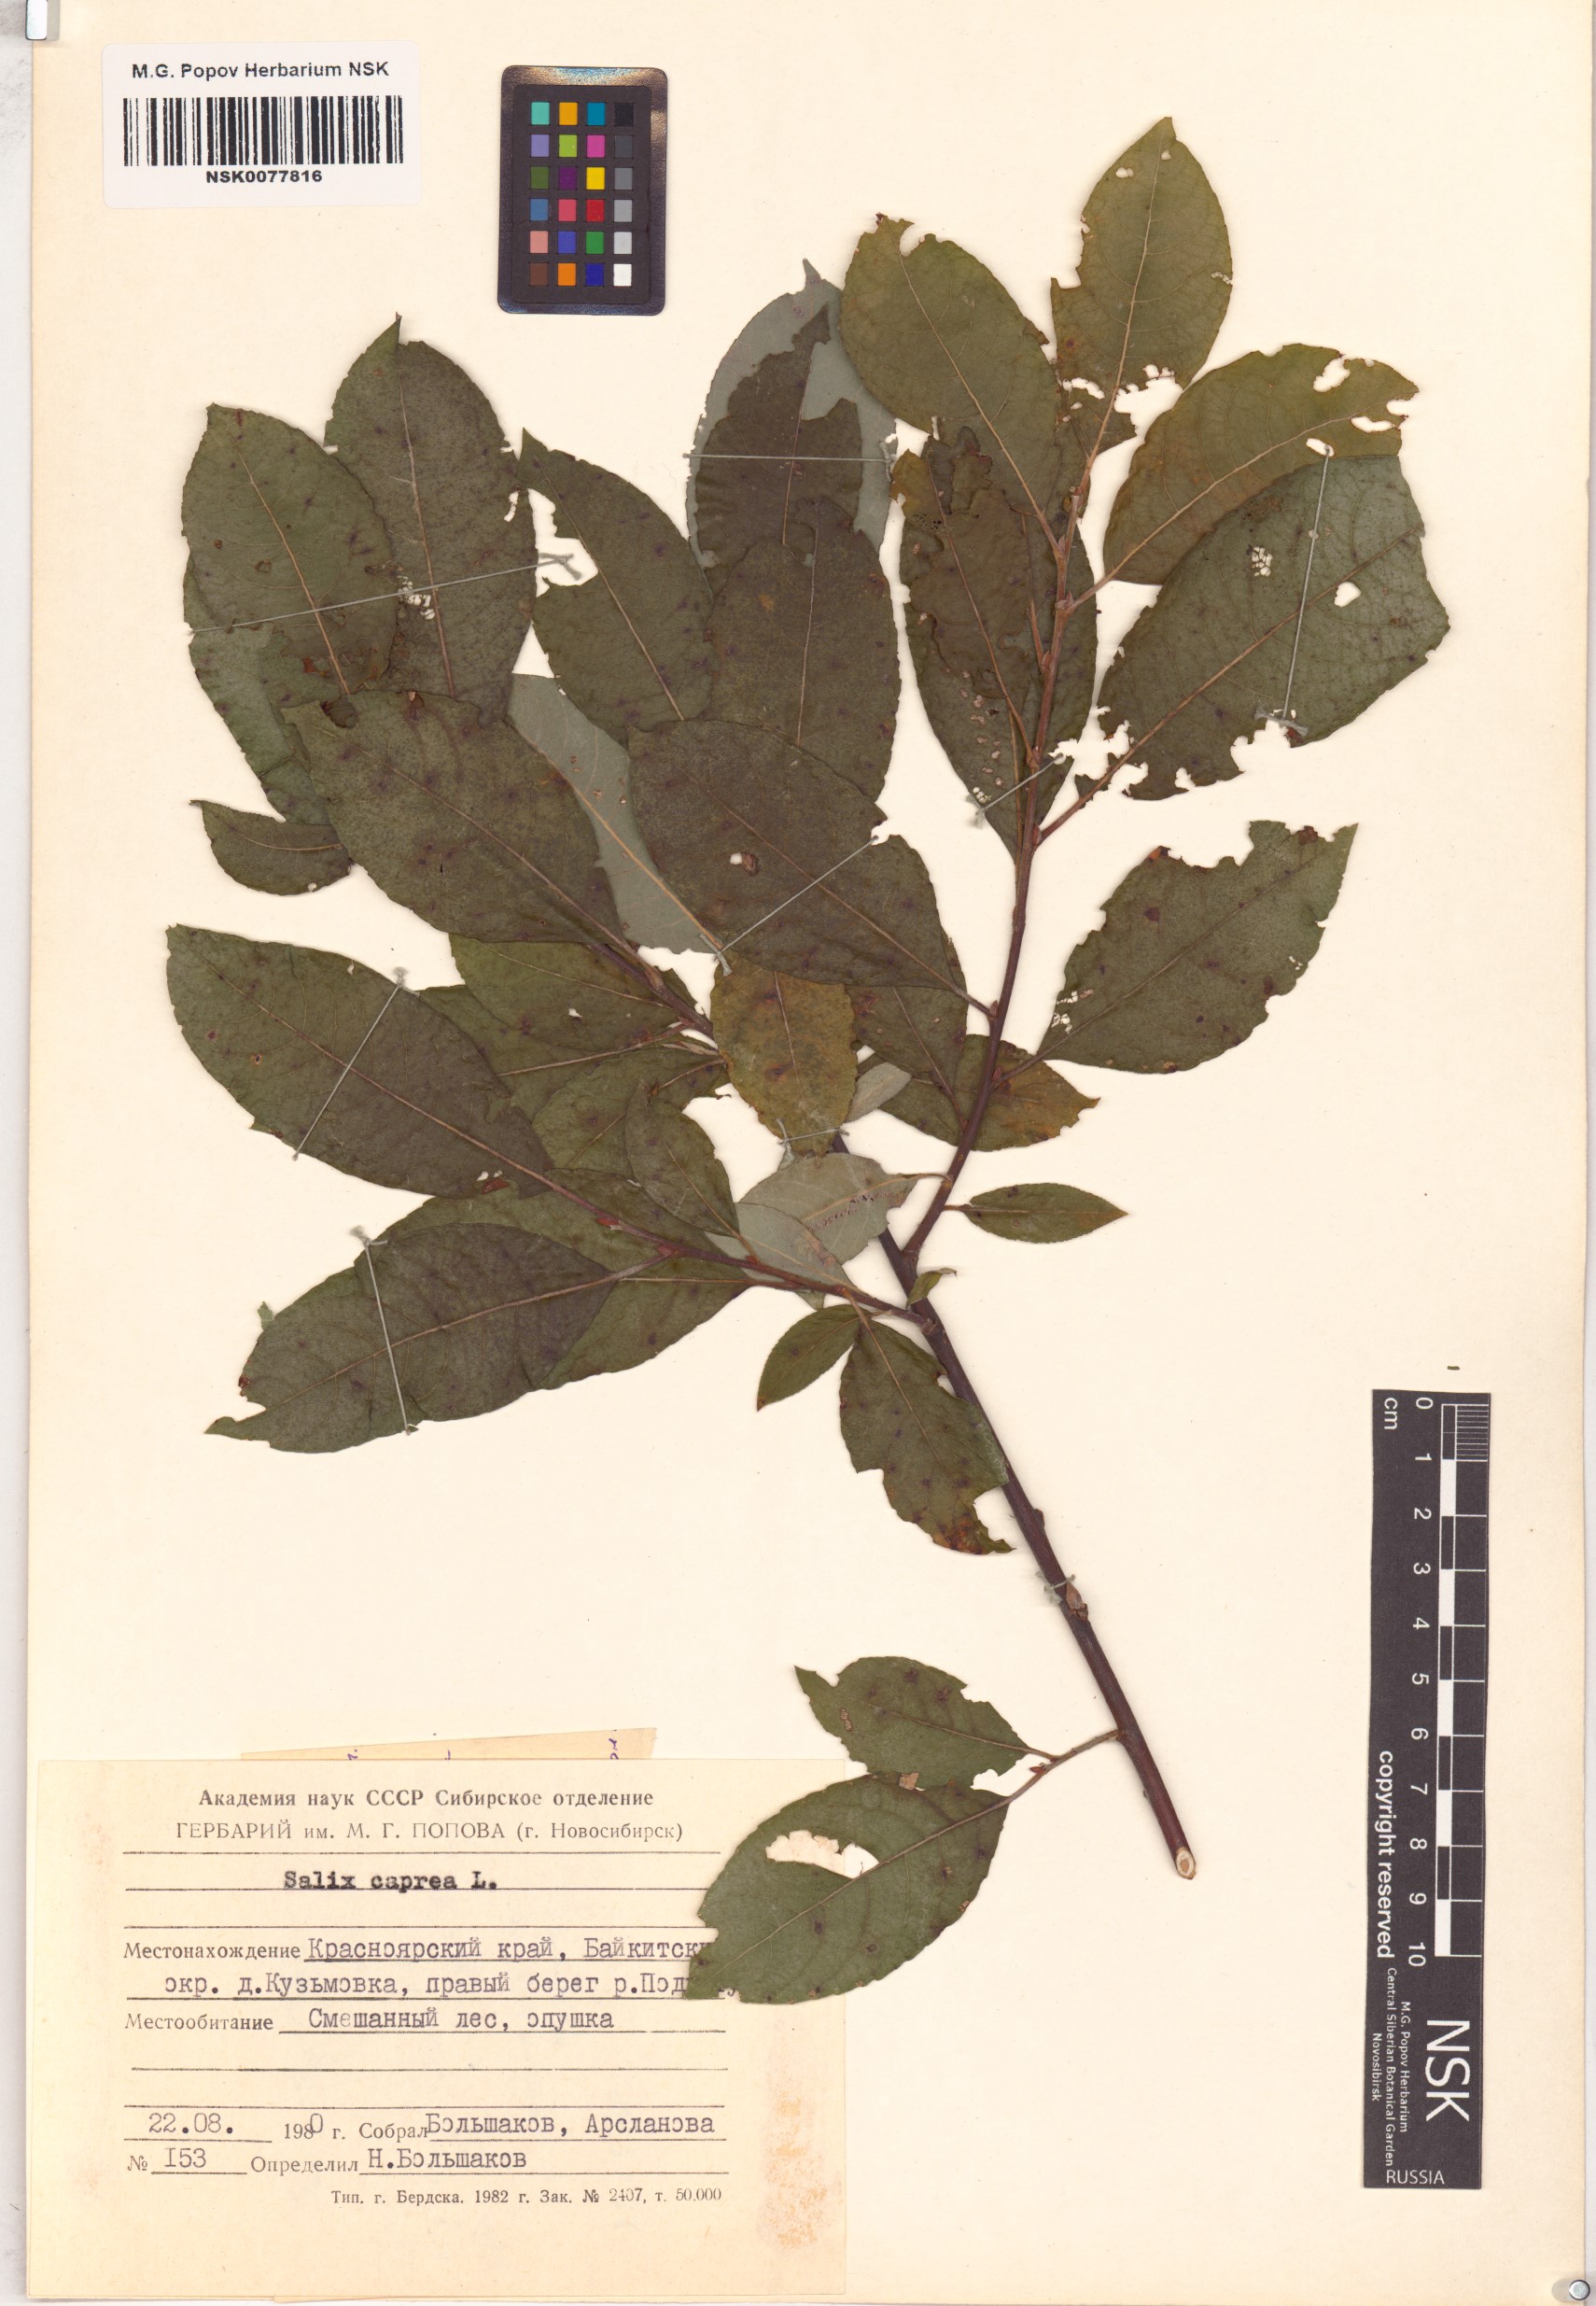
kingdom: Plantae
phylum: Tracheophyta
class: Magnoliopsida
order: Malpighiales
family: Salicaceae
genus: Salix
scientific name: Salix caprea
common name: Goat willow
